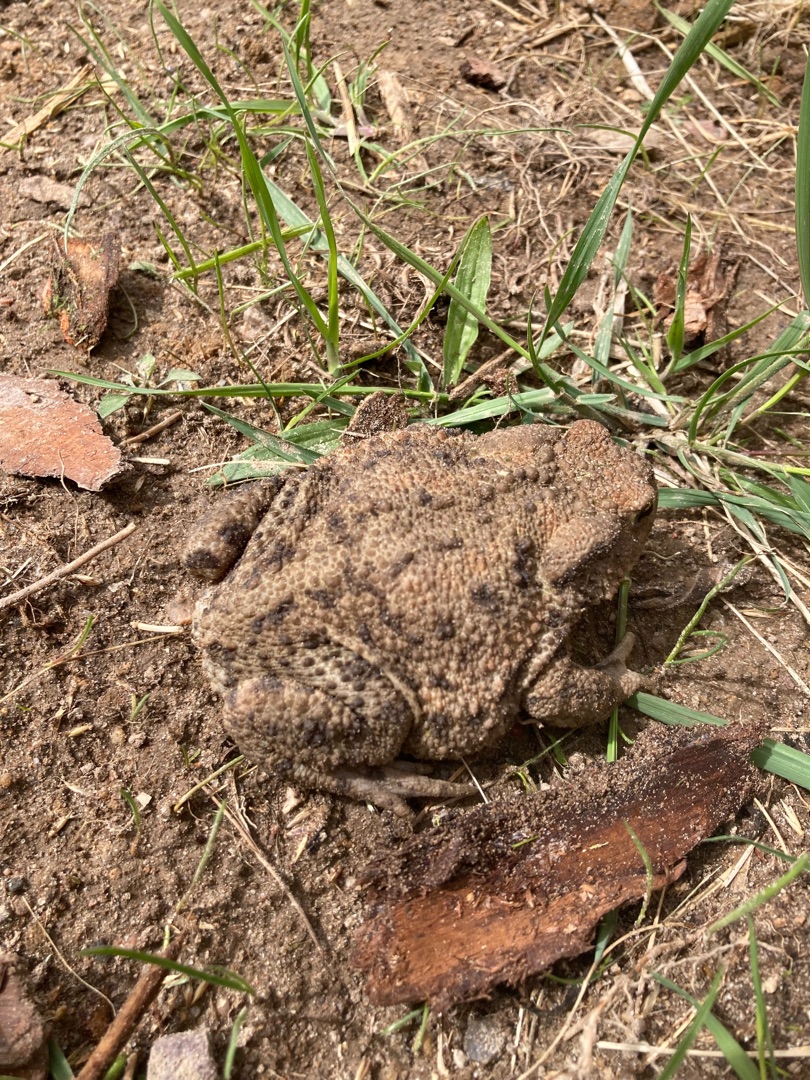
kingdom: Animalia
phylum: Chordata
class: Amphibia
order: Anura
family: Bufonidae
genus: Bufo
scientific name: Bufo bufo
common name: Skrubtudse
